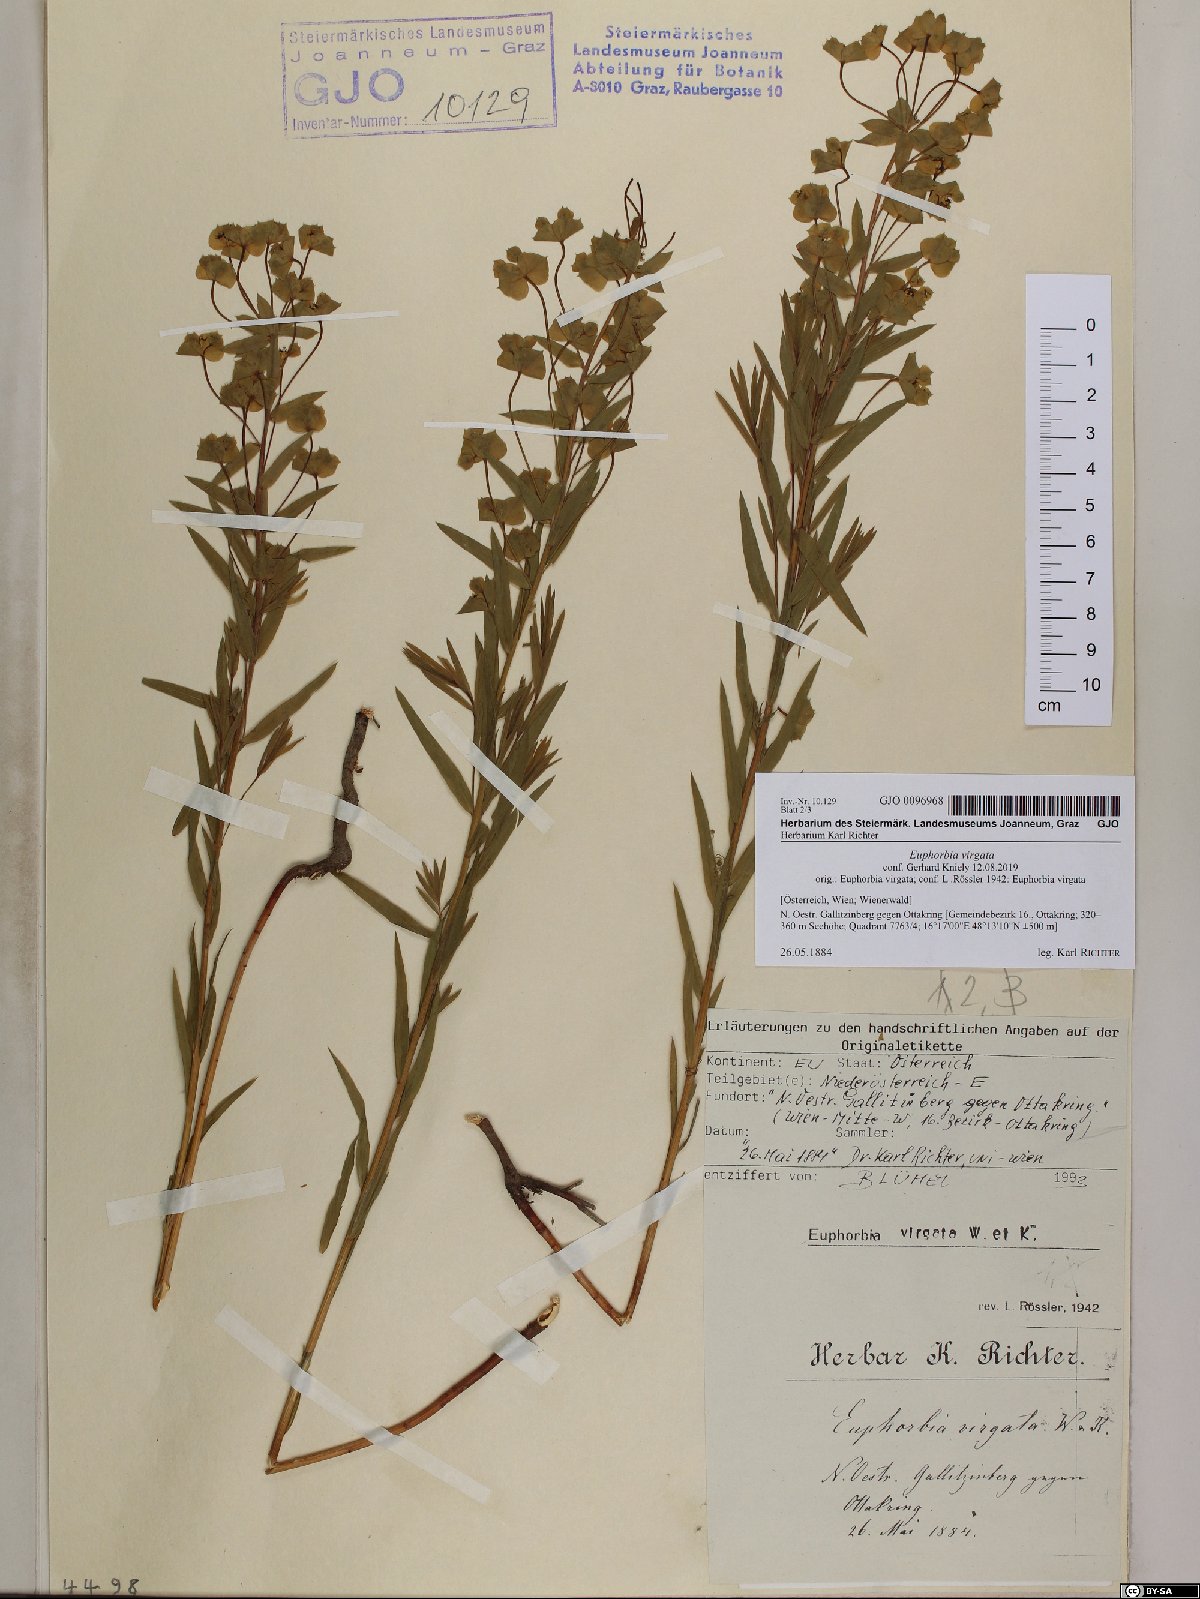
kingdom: Plantae
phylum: Tracheophyta
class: Magnoliopsida
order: Malpighiales
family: Euphorbiaceae
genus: Euphorbia
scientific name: Euphorbia virgata
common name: Leafy spurge
